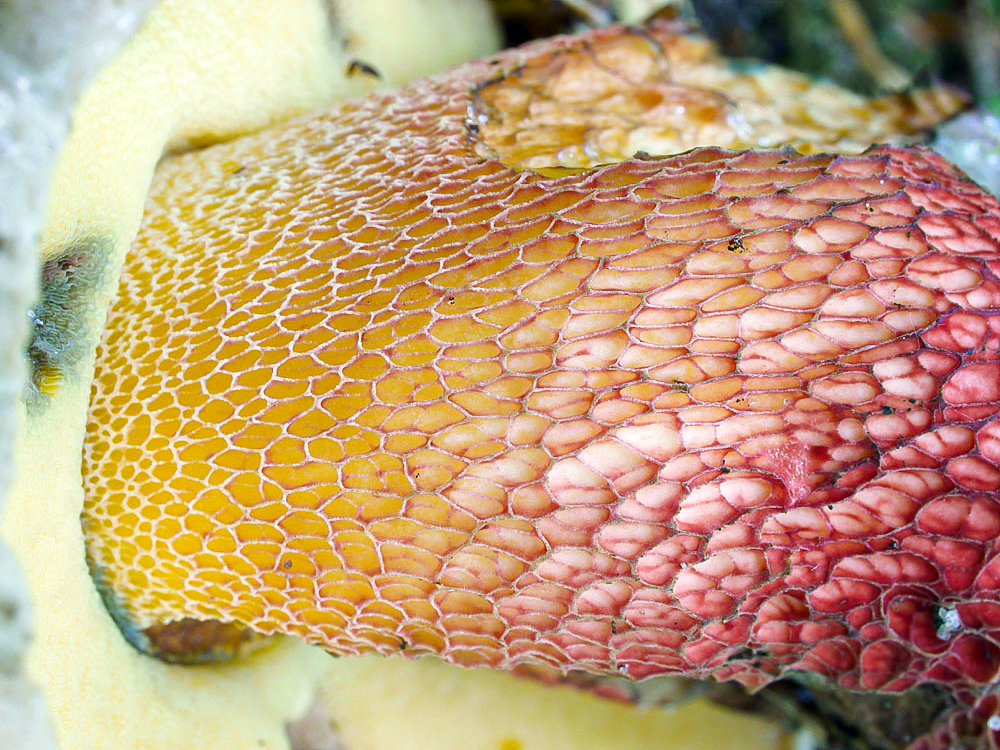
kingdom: Fungi
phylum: Basidiomycota
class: Agaricomycetes
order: Boletales
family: Boletaceae
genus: Caloboletus
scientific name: Caloboletus calopus
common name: skønfodet rørhat
